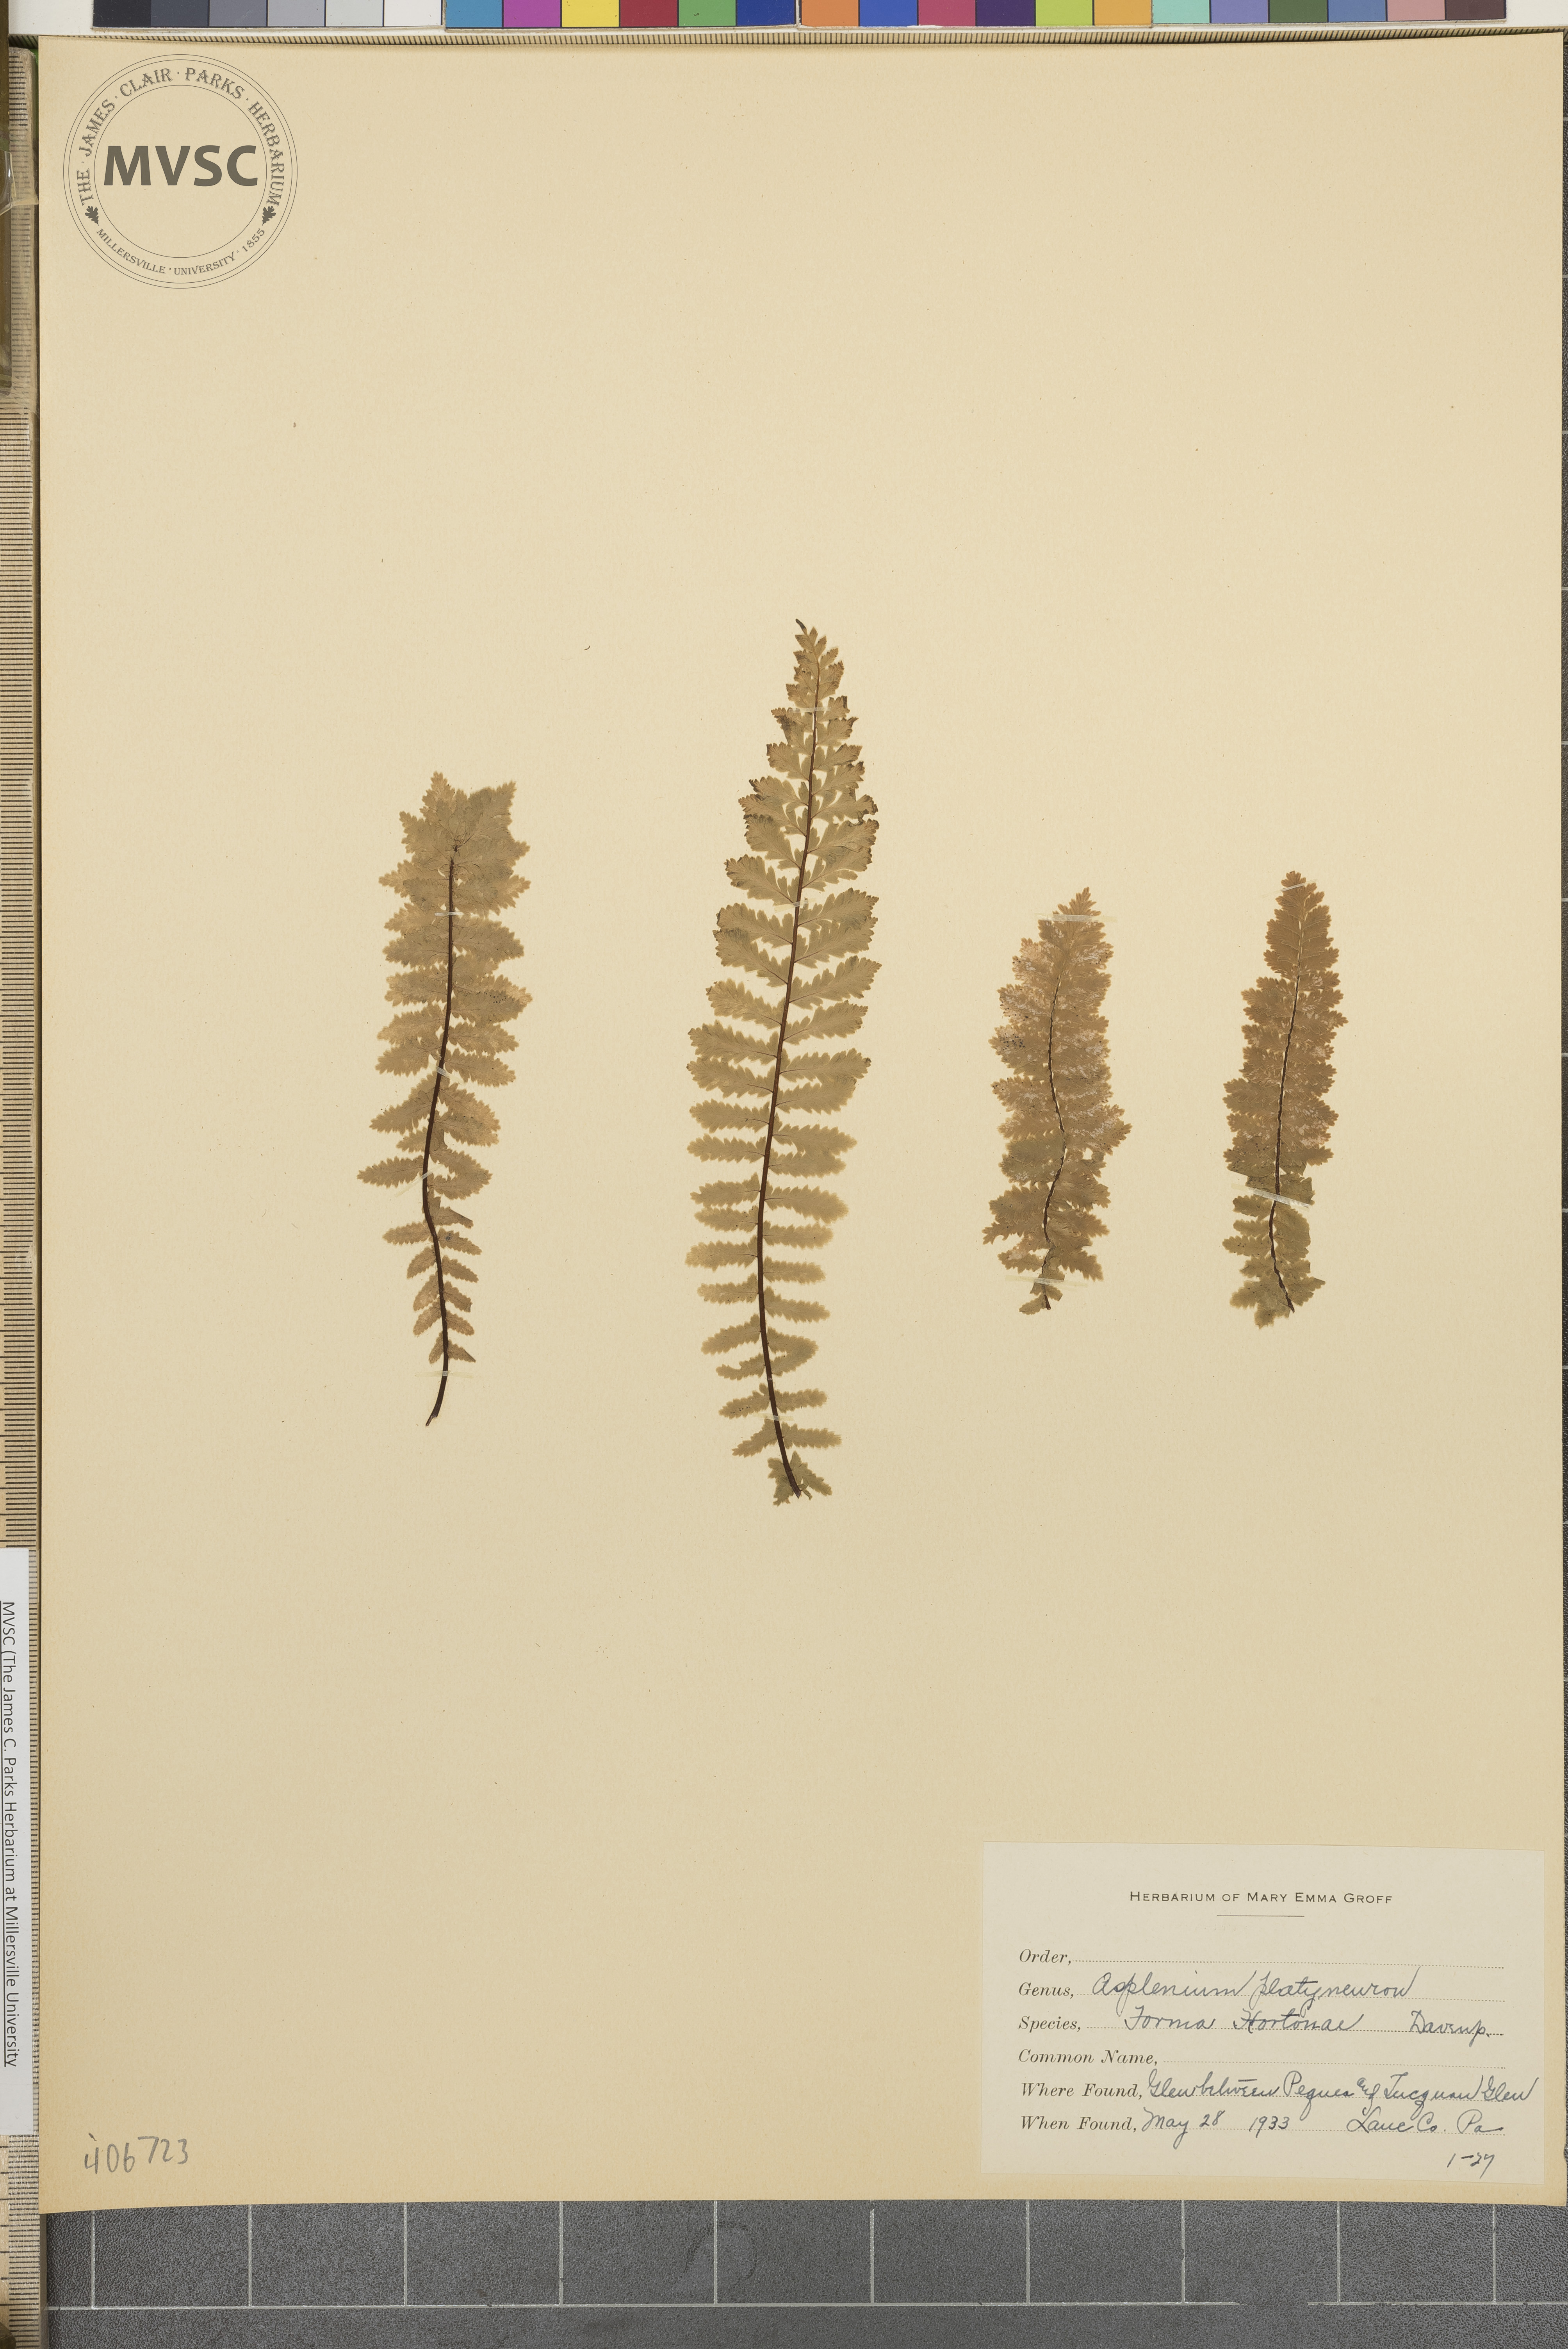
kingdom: Plantae
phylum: Tracheophyta
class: Polypodiopsida
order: Polypodiales
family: Aspleniaceae
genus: Asplenium
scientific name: Asplenium platyneuron
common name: Ebony spleenwort
